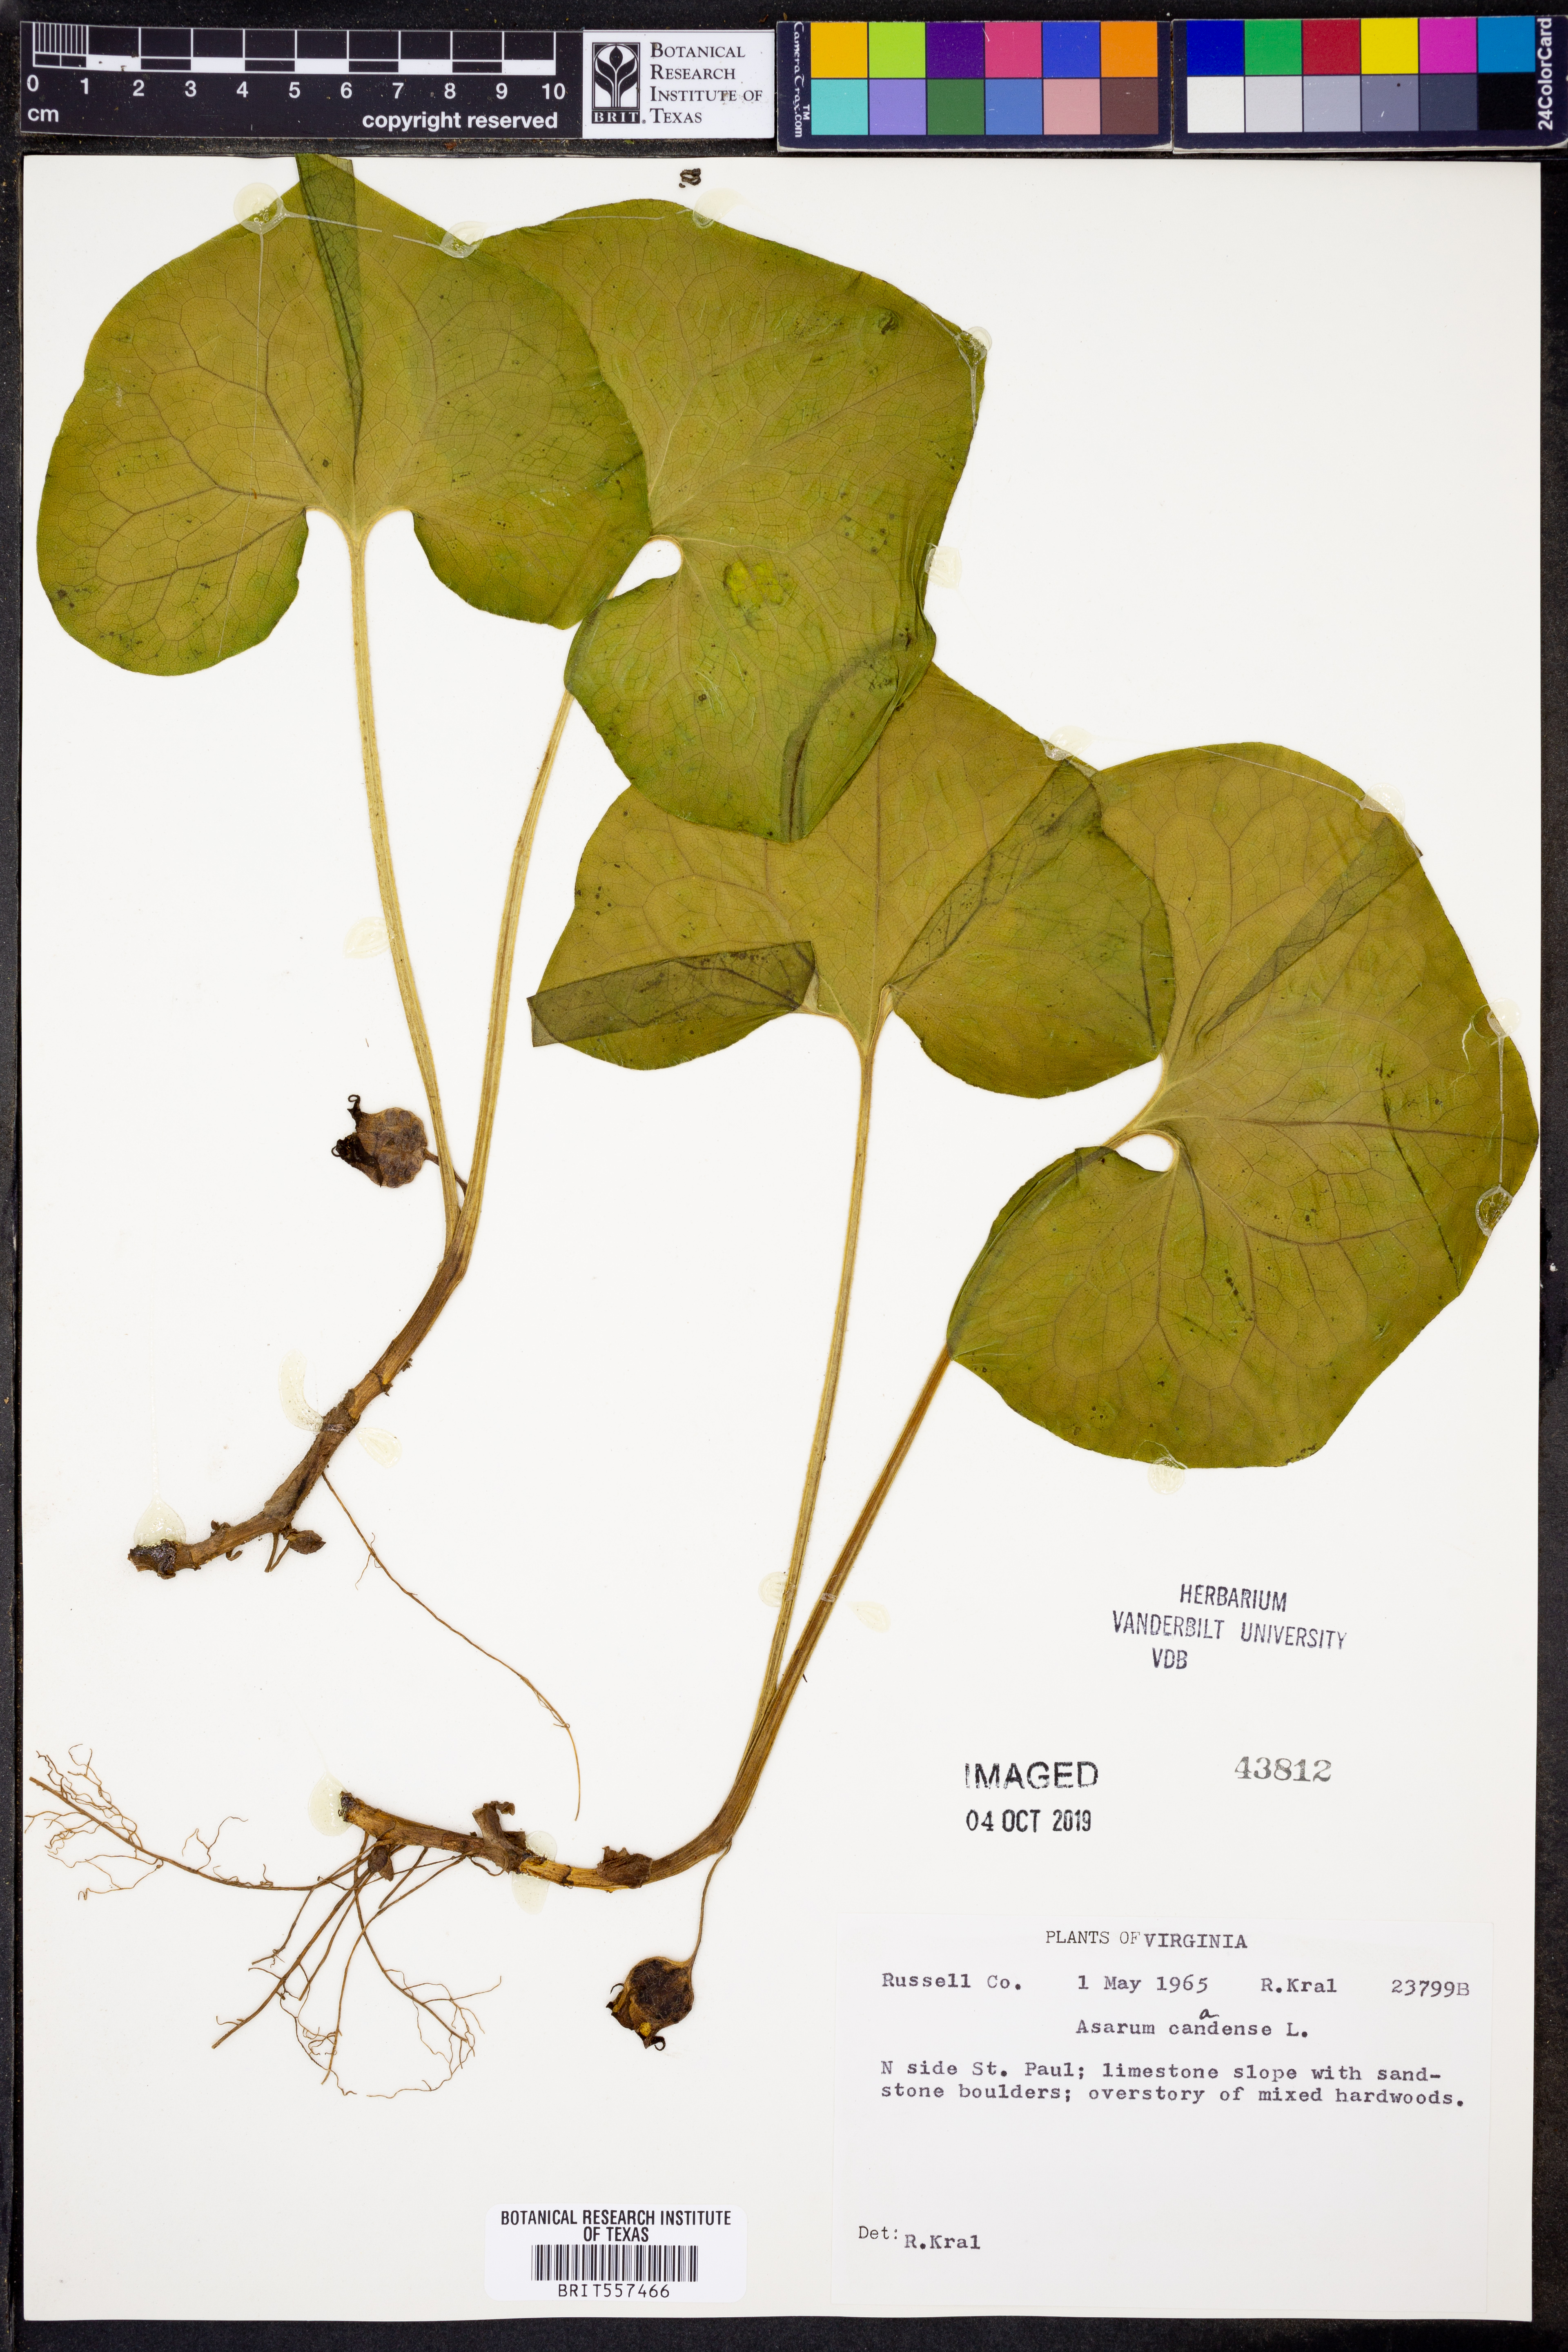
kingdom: Plantae
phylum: Tracheophyta
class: Magnoliopsida
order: Piperales
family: Aristolochiaceae
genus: Asarum
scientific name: Asarum canadense
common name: Wild ginger
